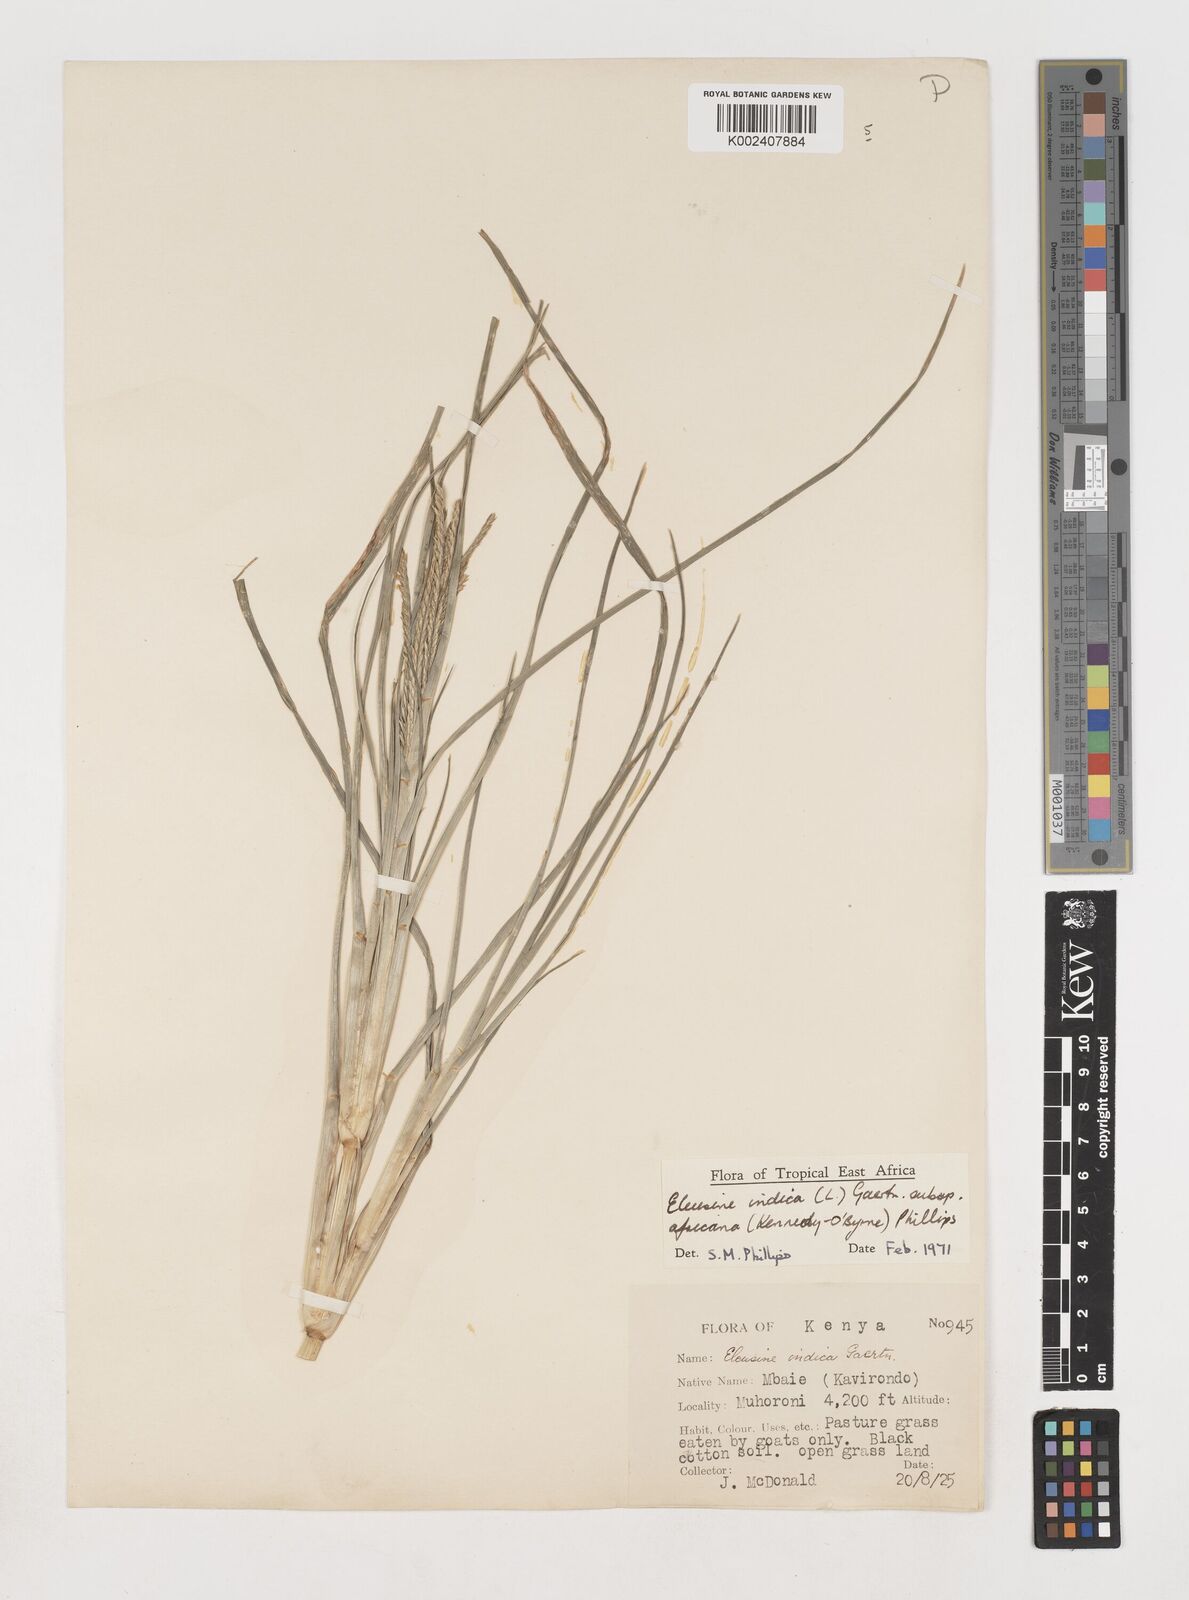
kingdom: Plantae
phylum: Tracheophyta
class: Liliopsida
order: Poales
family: Poaceae
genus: Eleusine
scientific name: Eleusine africana
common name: Wild african finger millet
